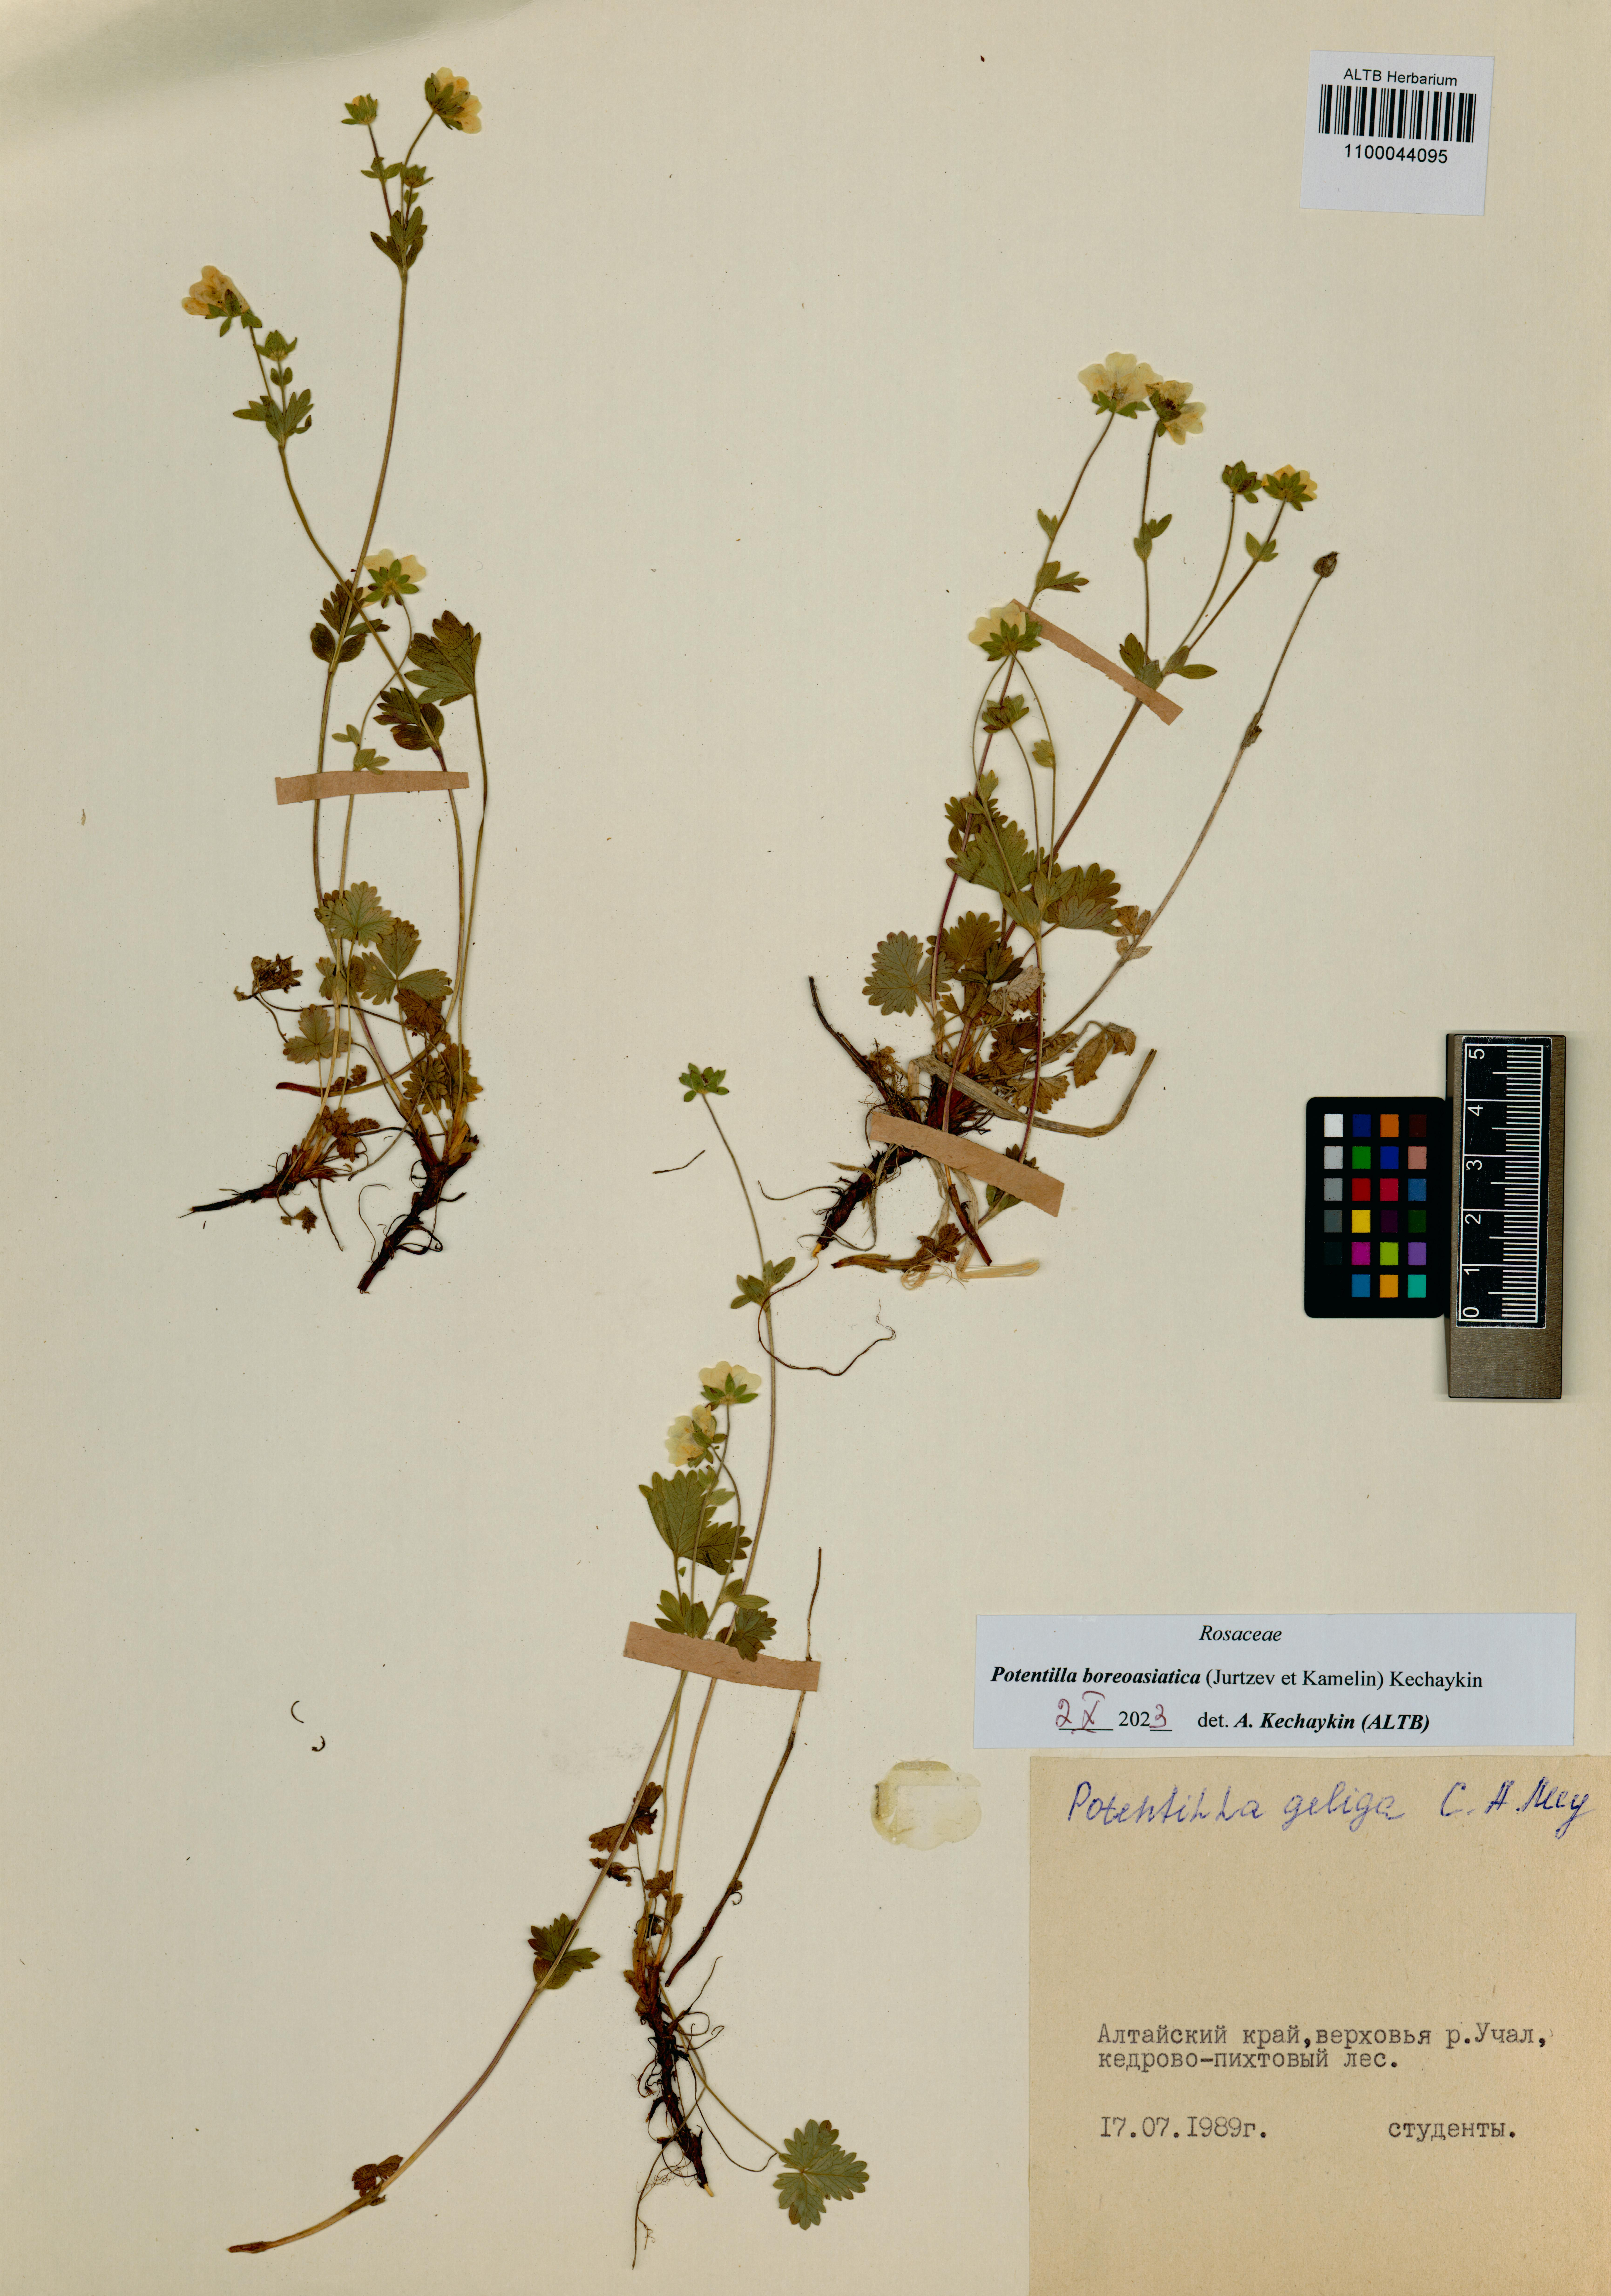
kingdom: Plantae
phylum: Tracheophyta
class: Magnoliopsida
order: Rosales
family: Rosaceae
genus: Potentilla
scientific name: Potentilla
